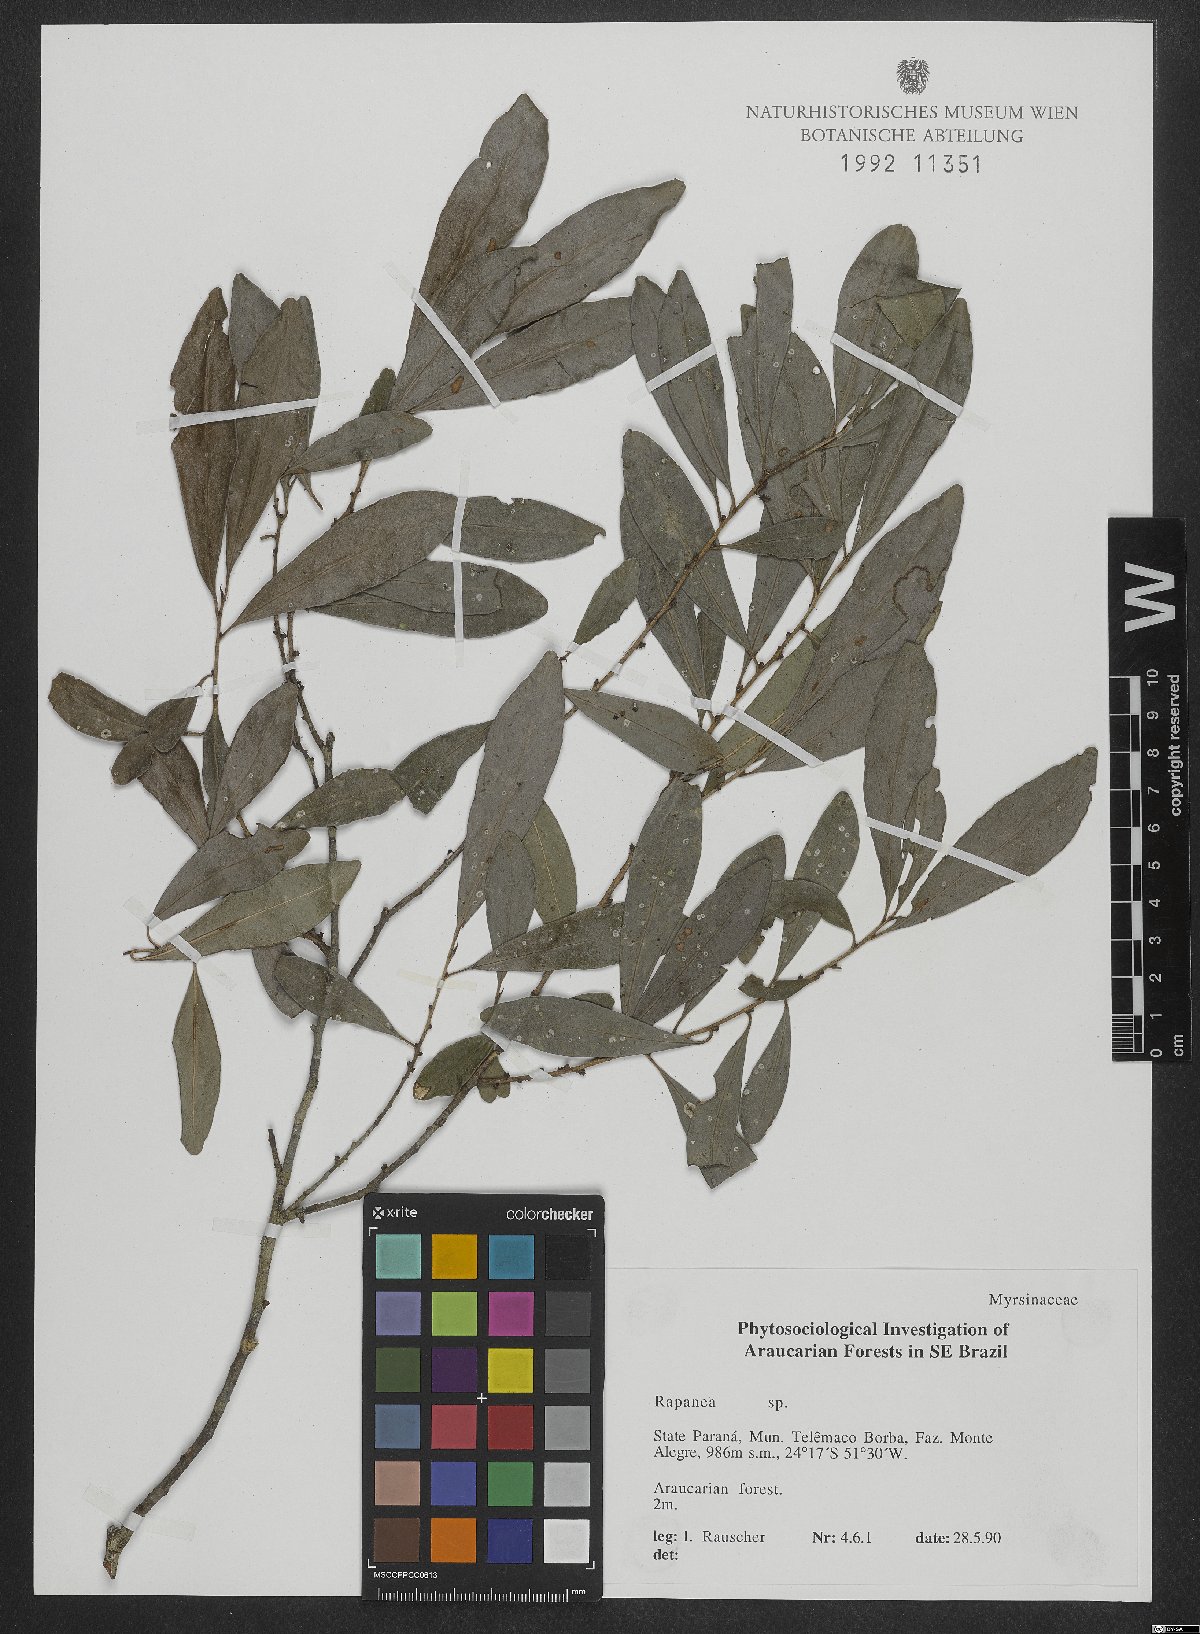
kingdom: Plantae
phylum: Tracheophyta
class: Magnoliopsida
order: Ericales
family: Primulaceae
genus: Myrsine
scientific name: Myrsine
